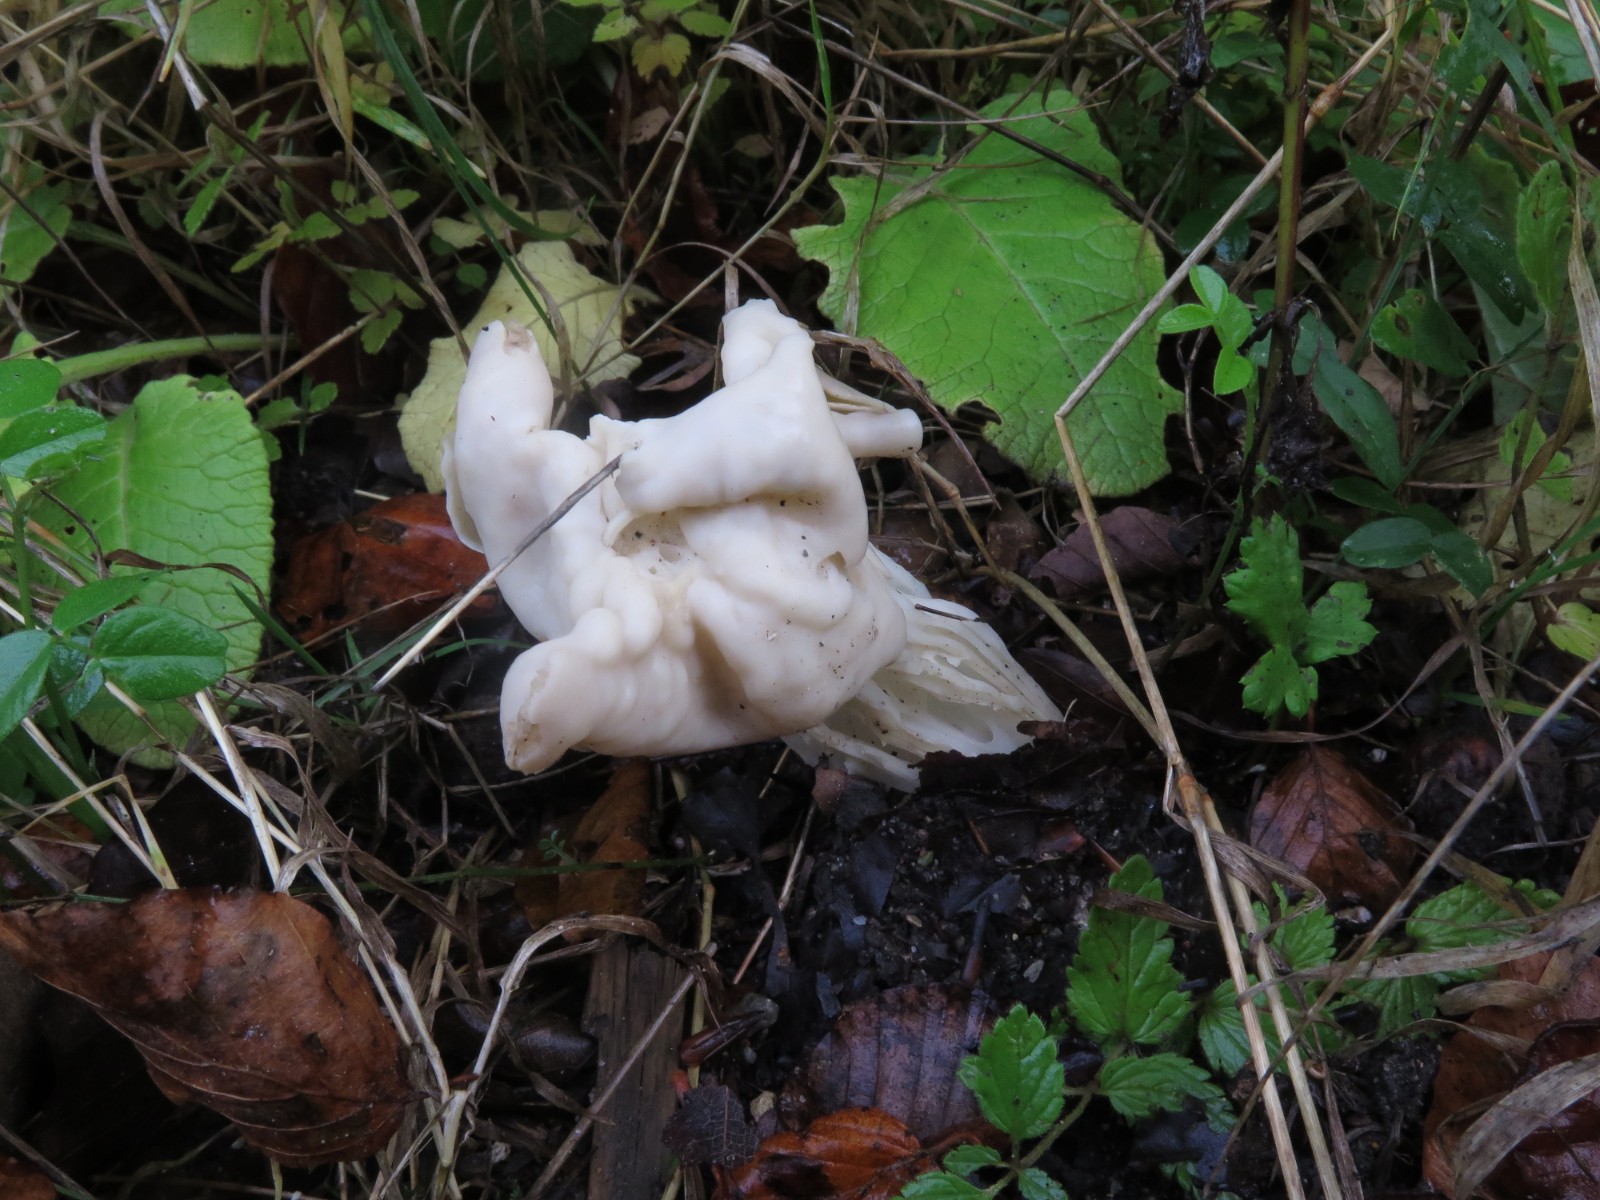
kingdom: Fungi
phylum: Ascomycota
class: Pezizomycetes
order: Pezizales
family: Helvellaceae
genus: Helvella
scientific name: Helvella lacunosa
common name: grubet foldhat
